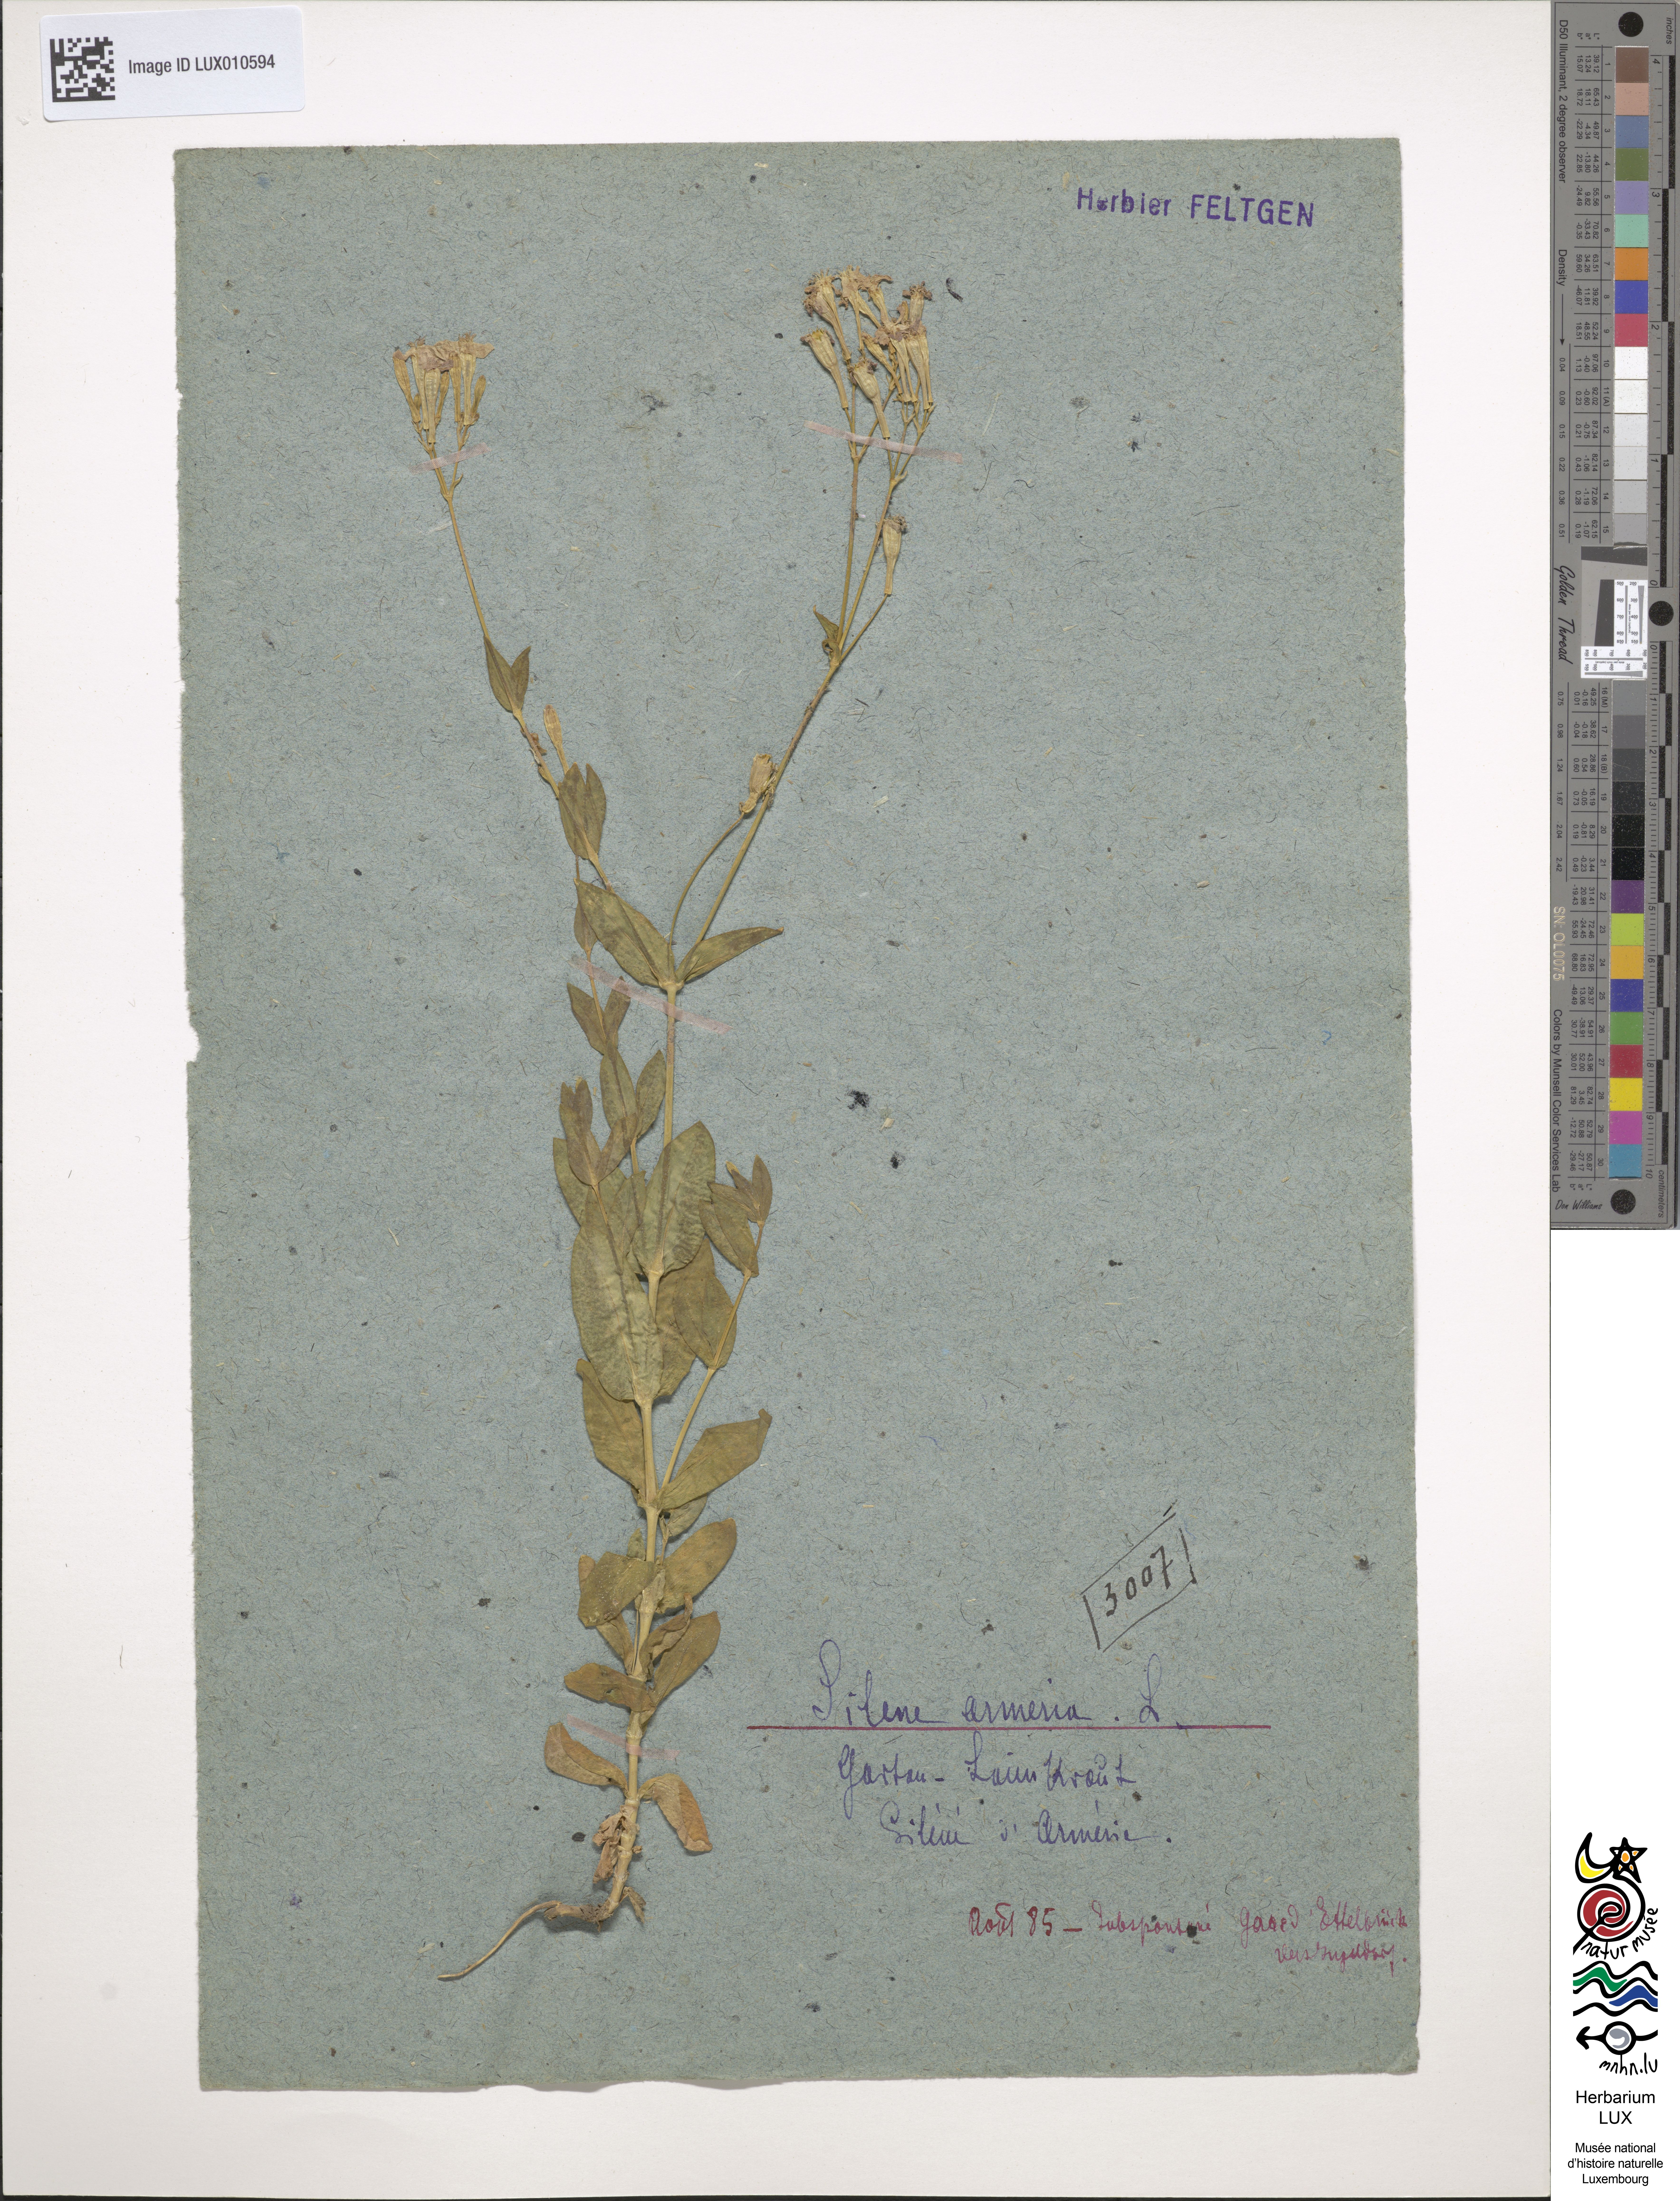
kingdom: Plantae
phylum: Tracheophyta
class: Magnoliopsida
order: Caryophyllales
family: Caryophyllaceae
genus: Atocion
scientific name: Atocion armeria
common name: Sweet william catchfly
